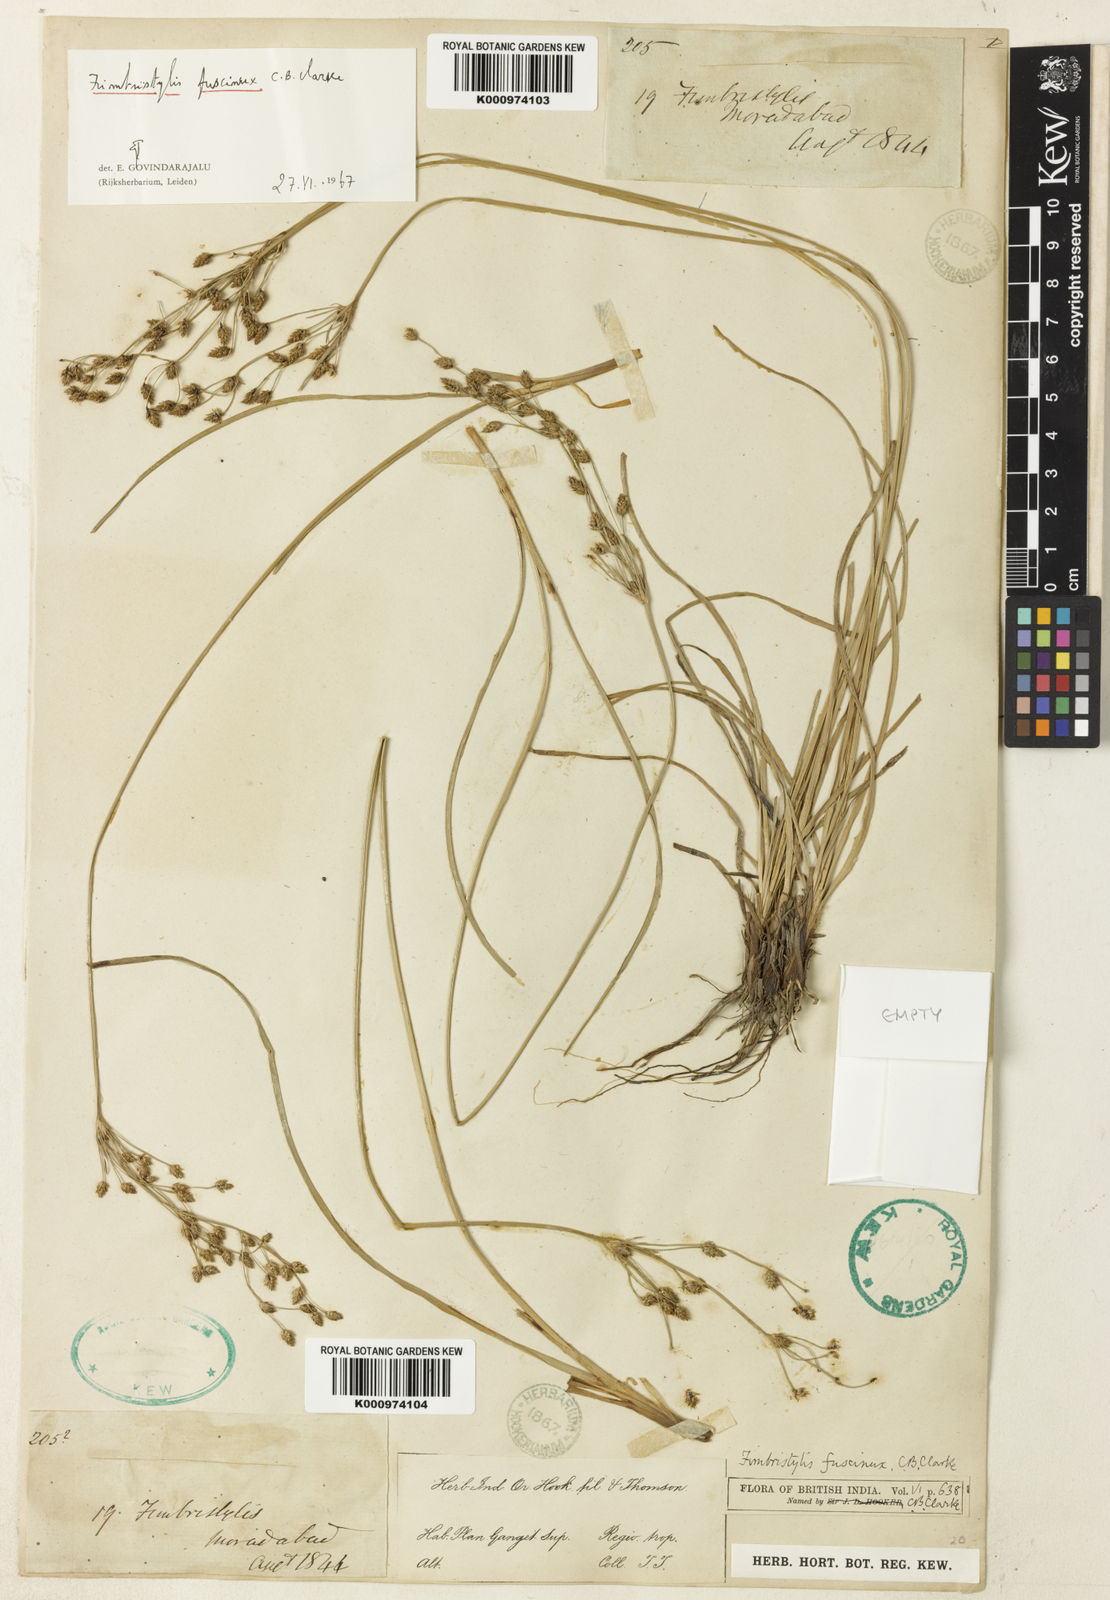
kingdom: Plantae
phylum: Tracheophyta
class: Liliopsida
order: Poales
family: Cyperaceae
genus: Fimbristylis
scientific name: Fimbristylis fuscinux
